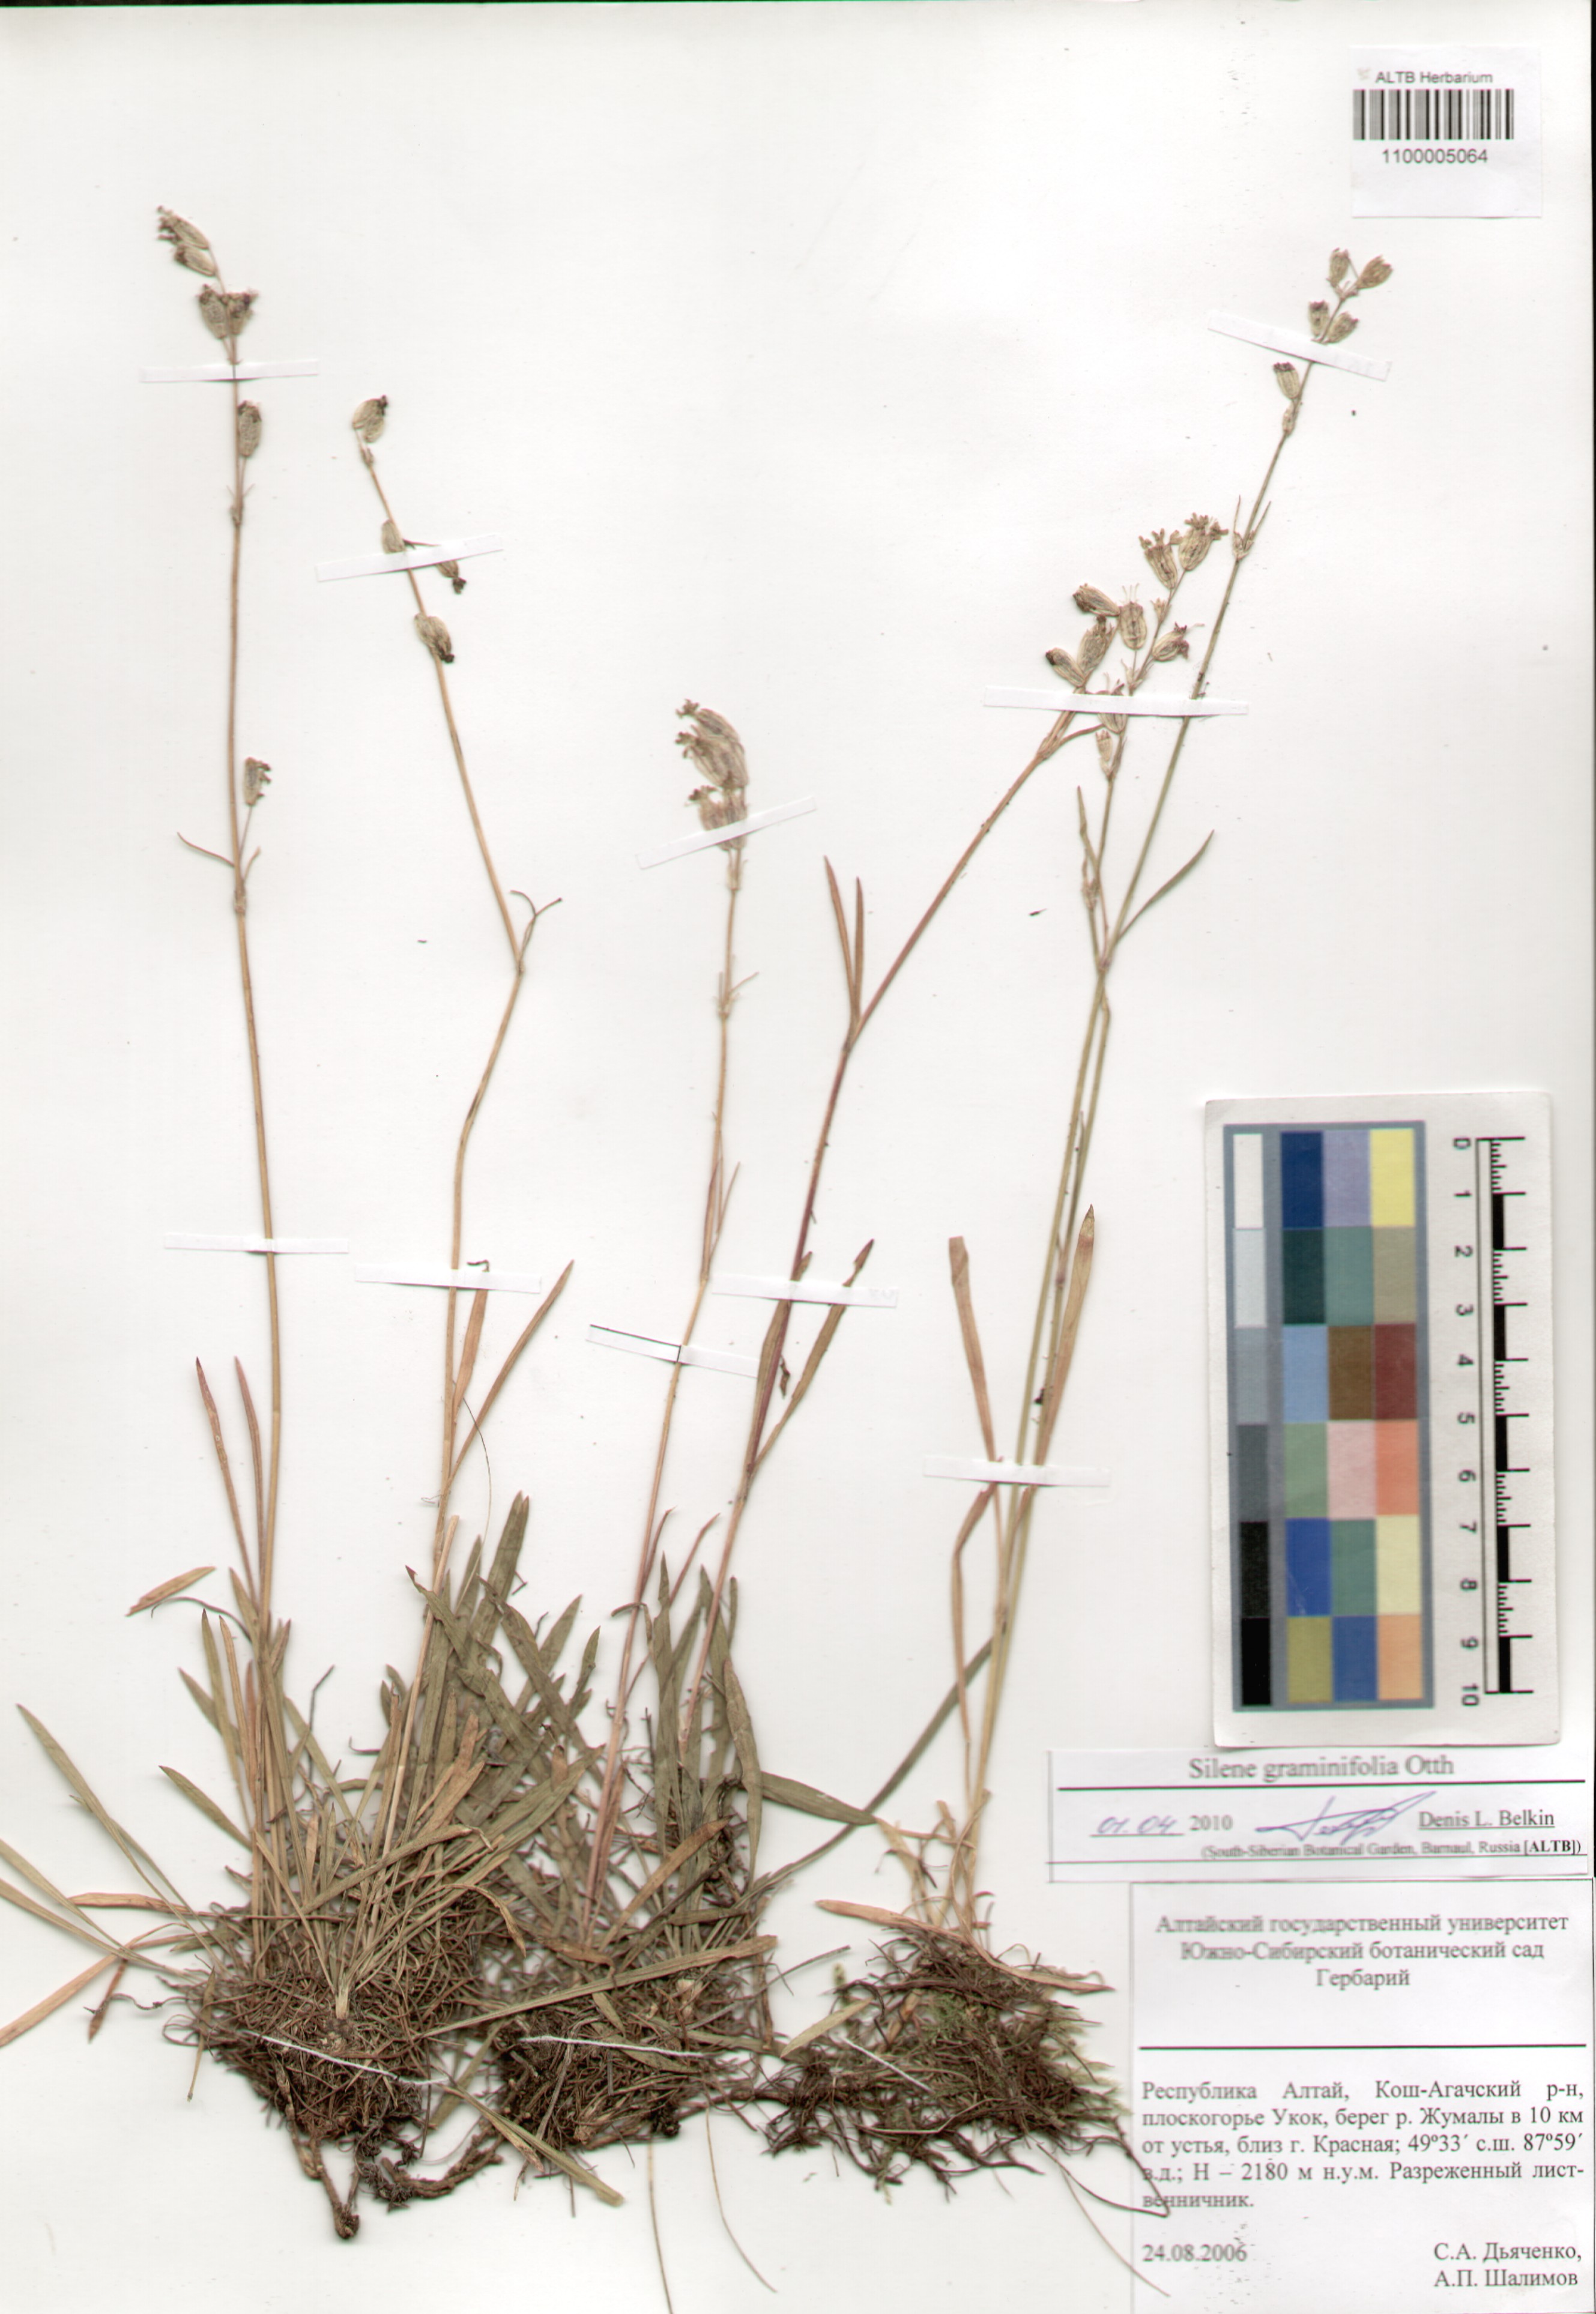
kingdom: Plantae
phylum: Tracheophyta
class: Magnoliopsida
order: Caryophyllales
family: Caryophyllaceae
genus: Silene
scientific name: Silene graminifolia
